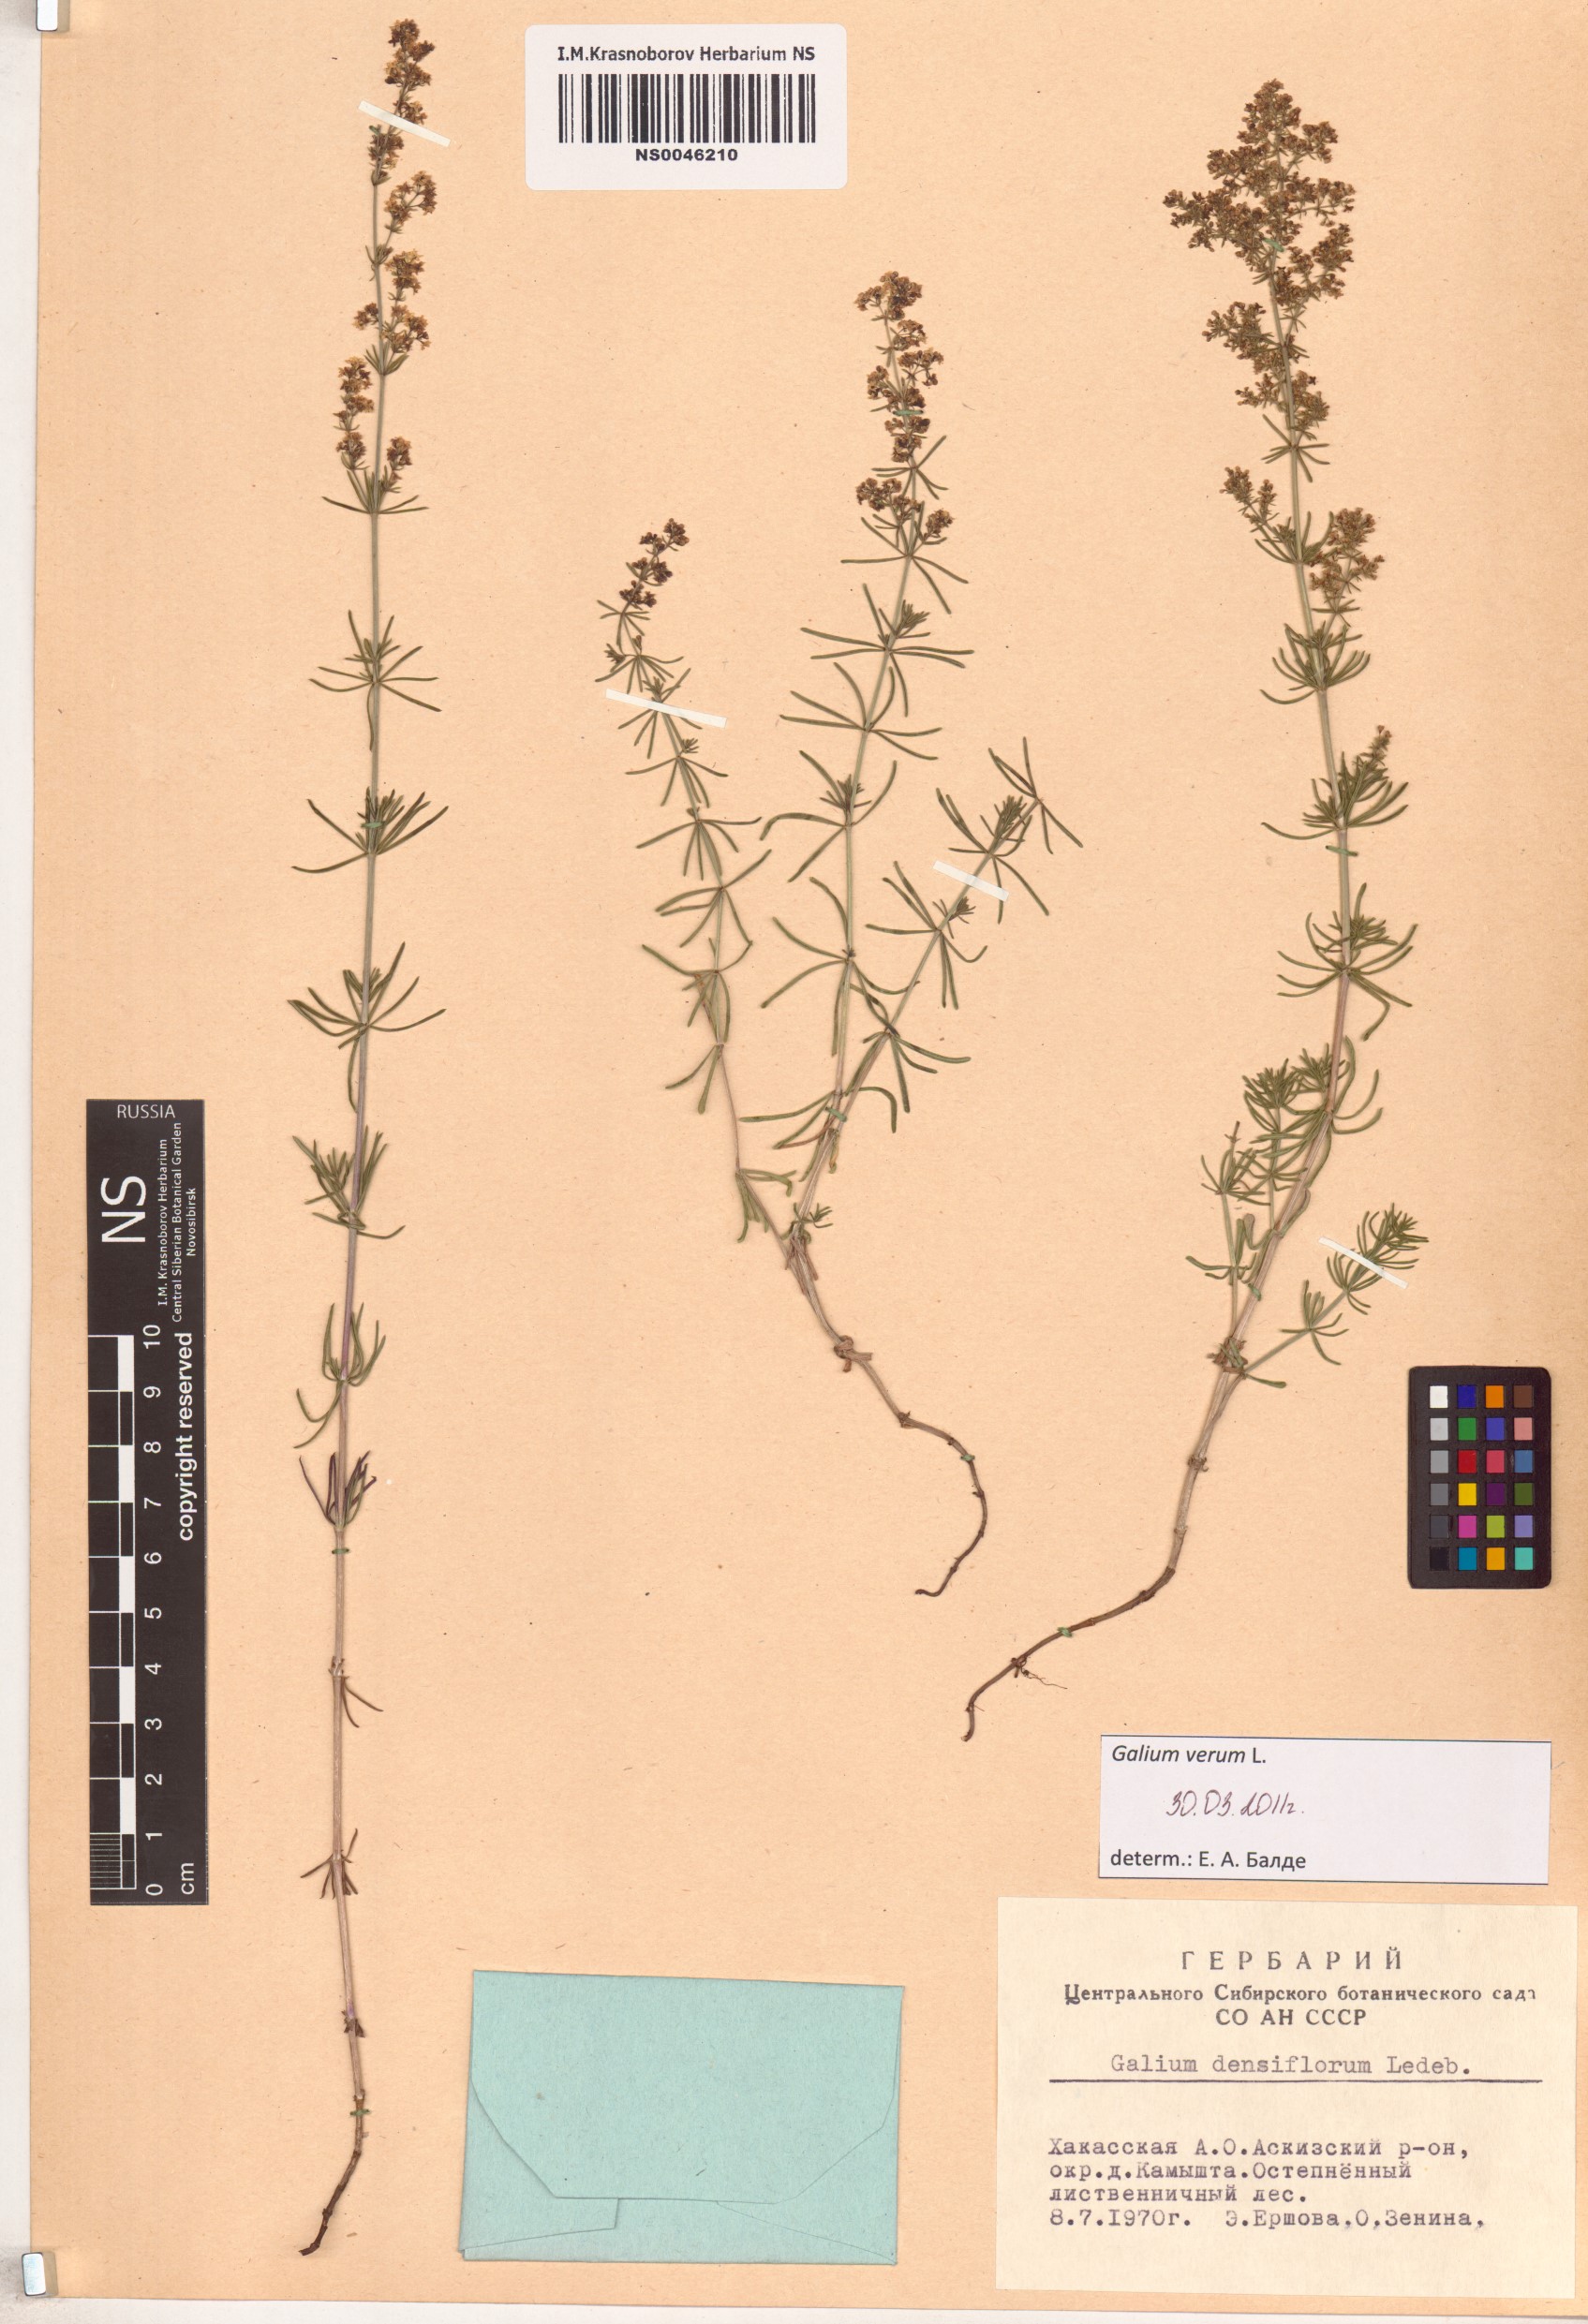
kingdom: Plantae
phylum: Tracheophyta
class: Magnoliopsida
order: Gentianales
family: Rubiaceae
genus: Galium
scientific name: Galium verum
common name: Lady's bedstraw
